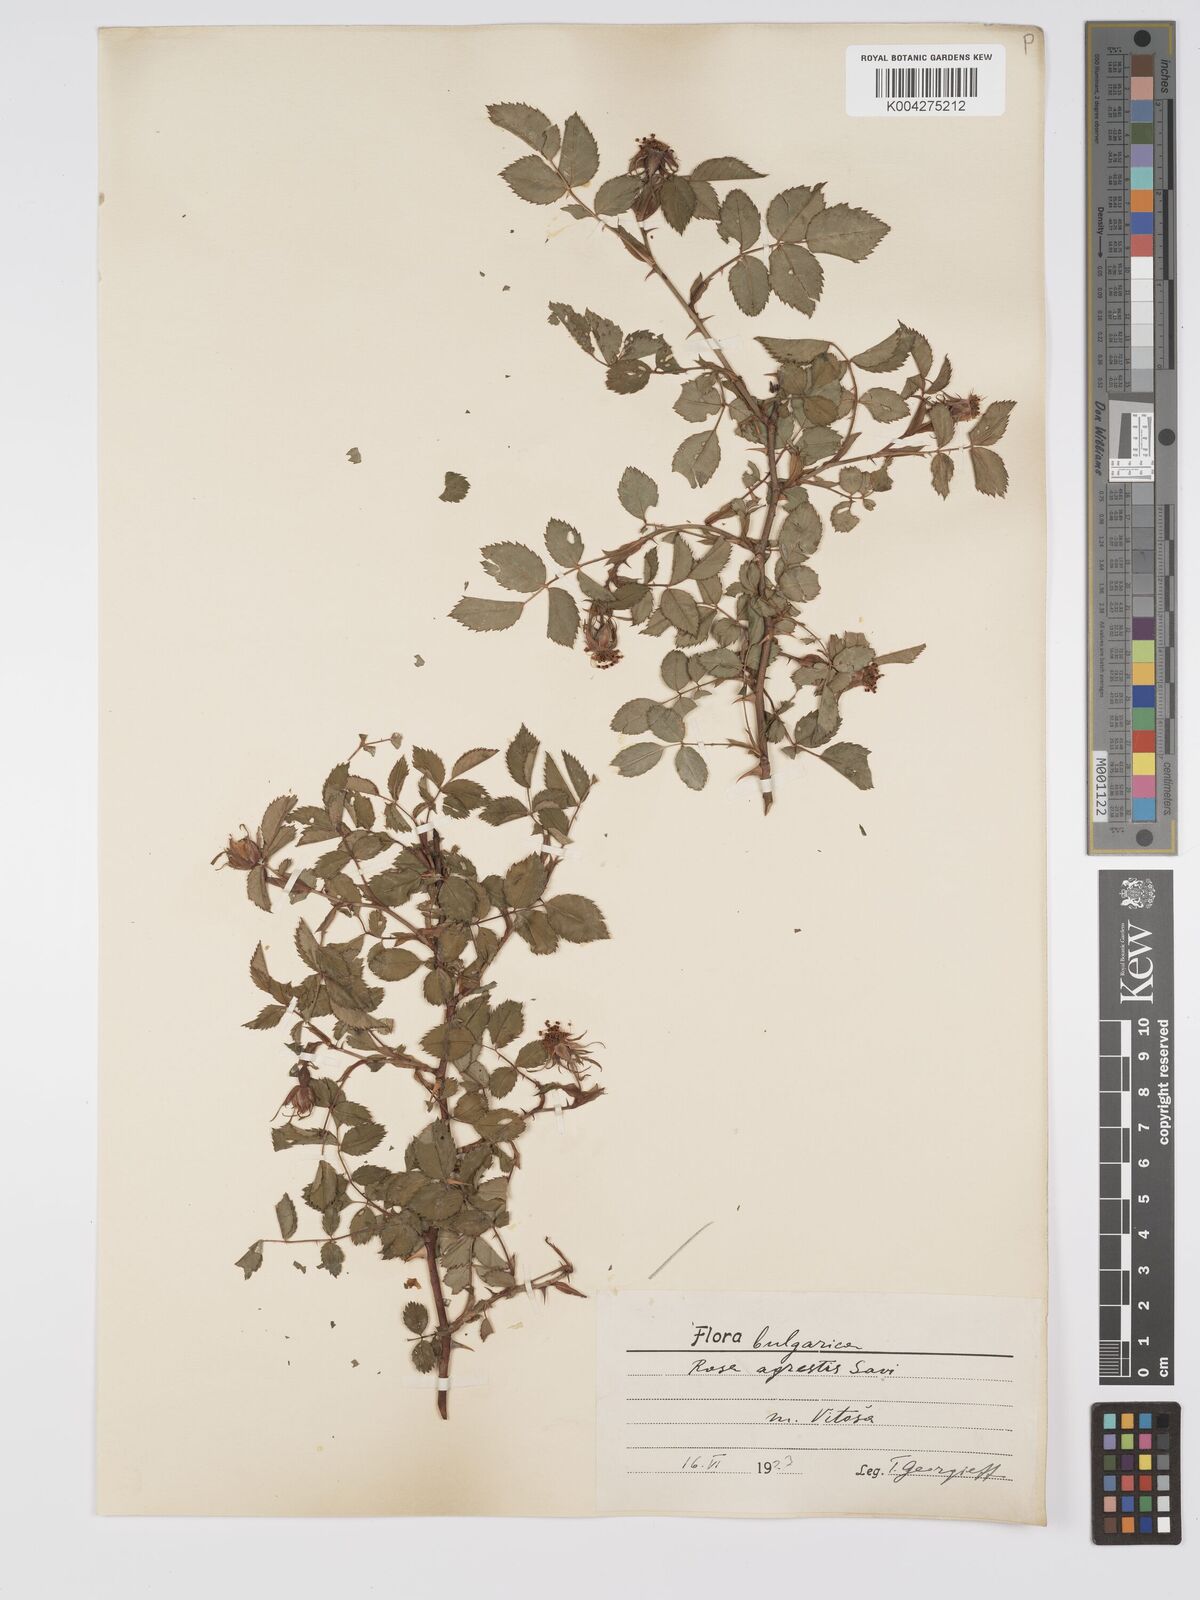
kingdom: Plantae
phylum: Tracheophyta
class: Magnoliopsida
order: Rosales
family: Rosaceae
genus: Rosa
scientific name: Rosa
